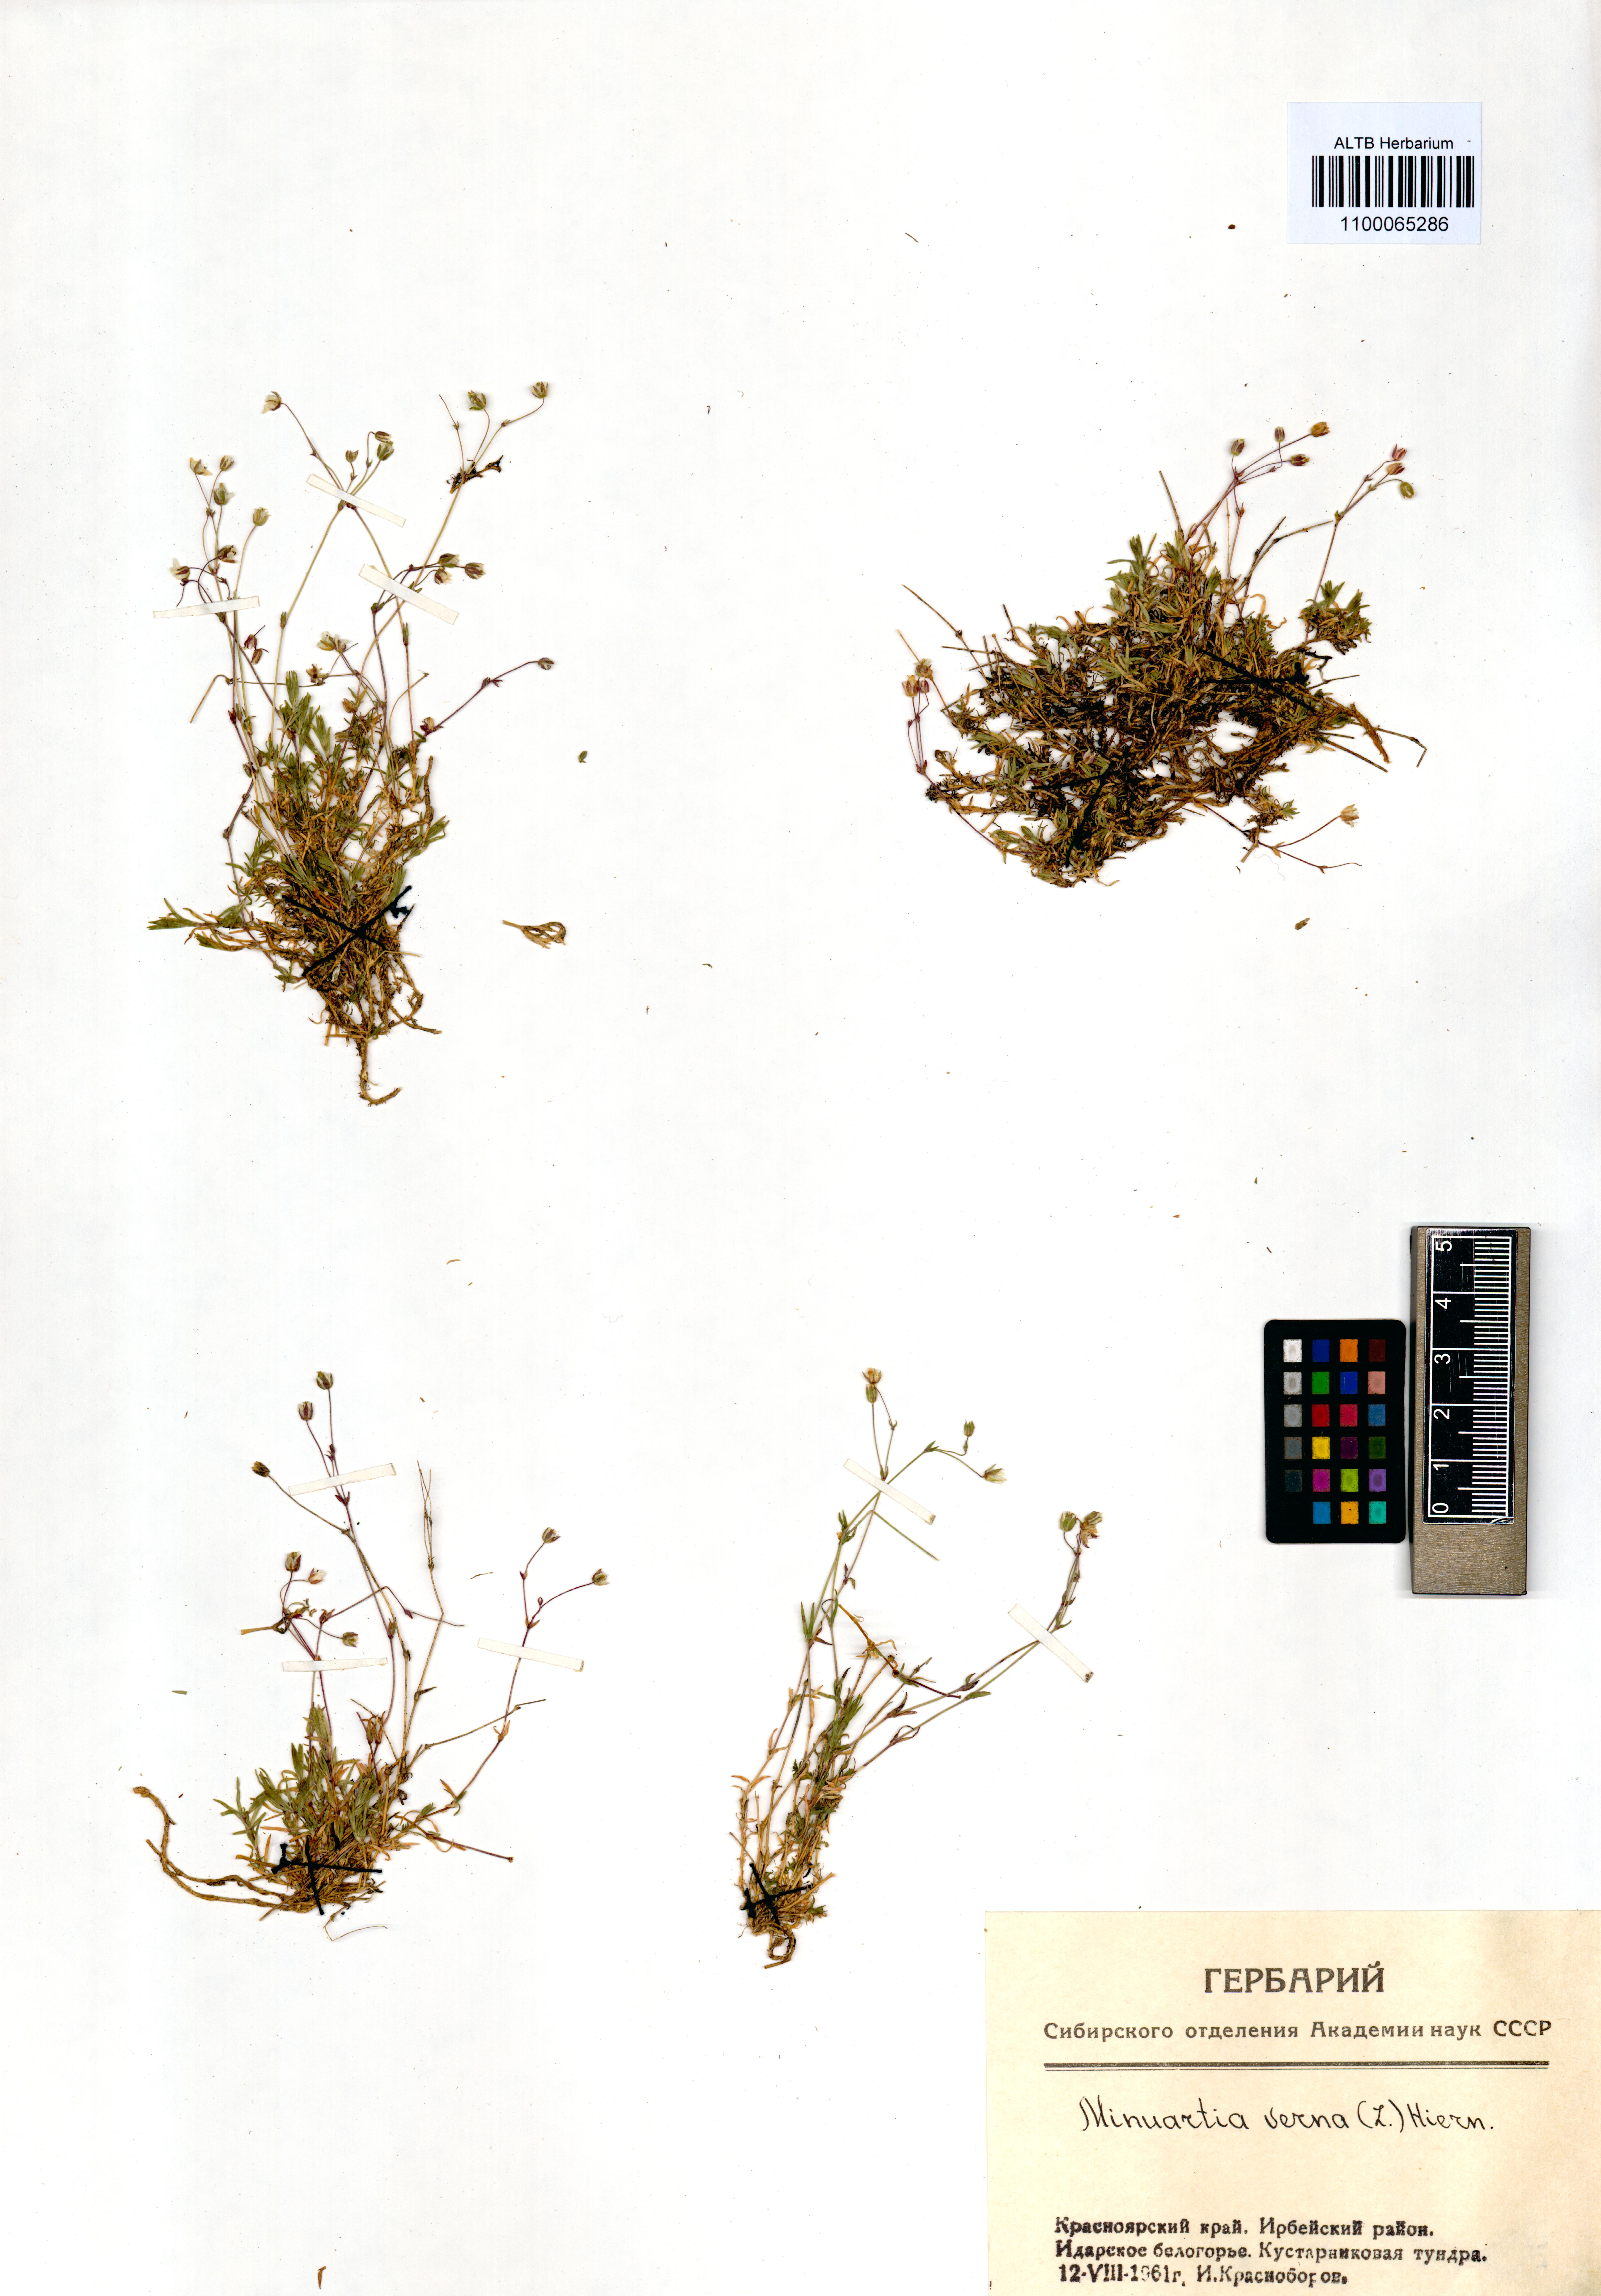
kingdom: Plantae
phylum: Tracheophyta
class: Magnoliopsida
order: Caryophyllales
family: Caryophyllaceae
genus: Sabulina
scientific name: Sabulina verna
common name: Spring sandwort
